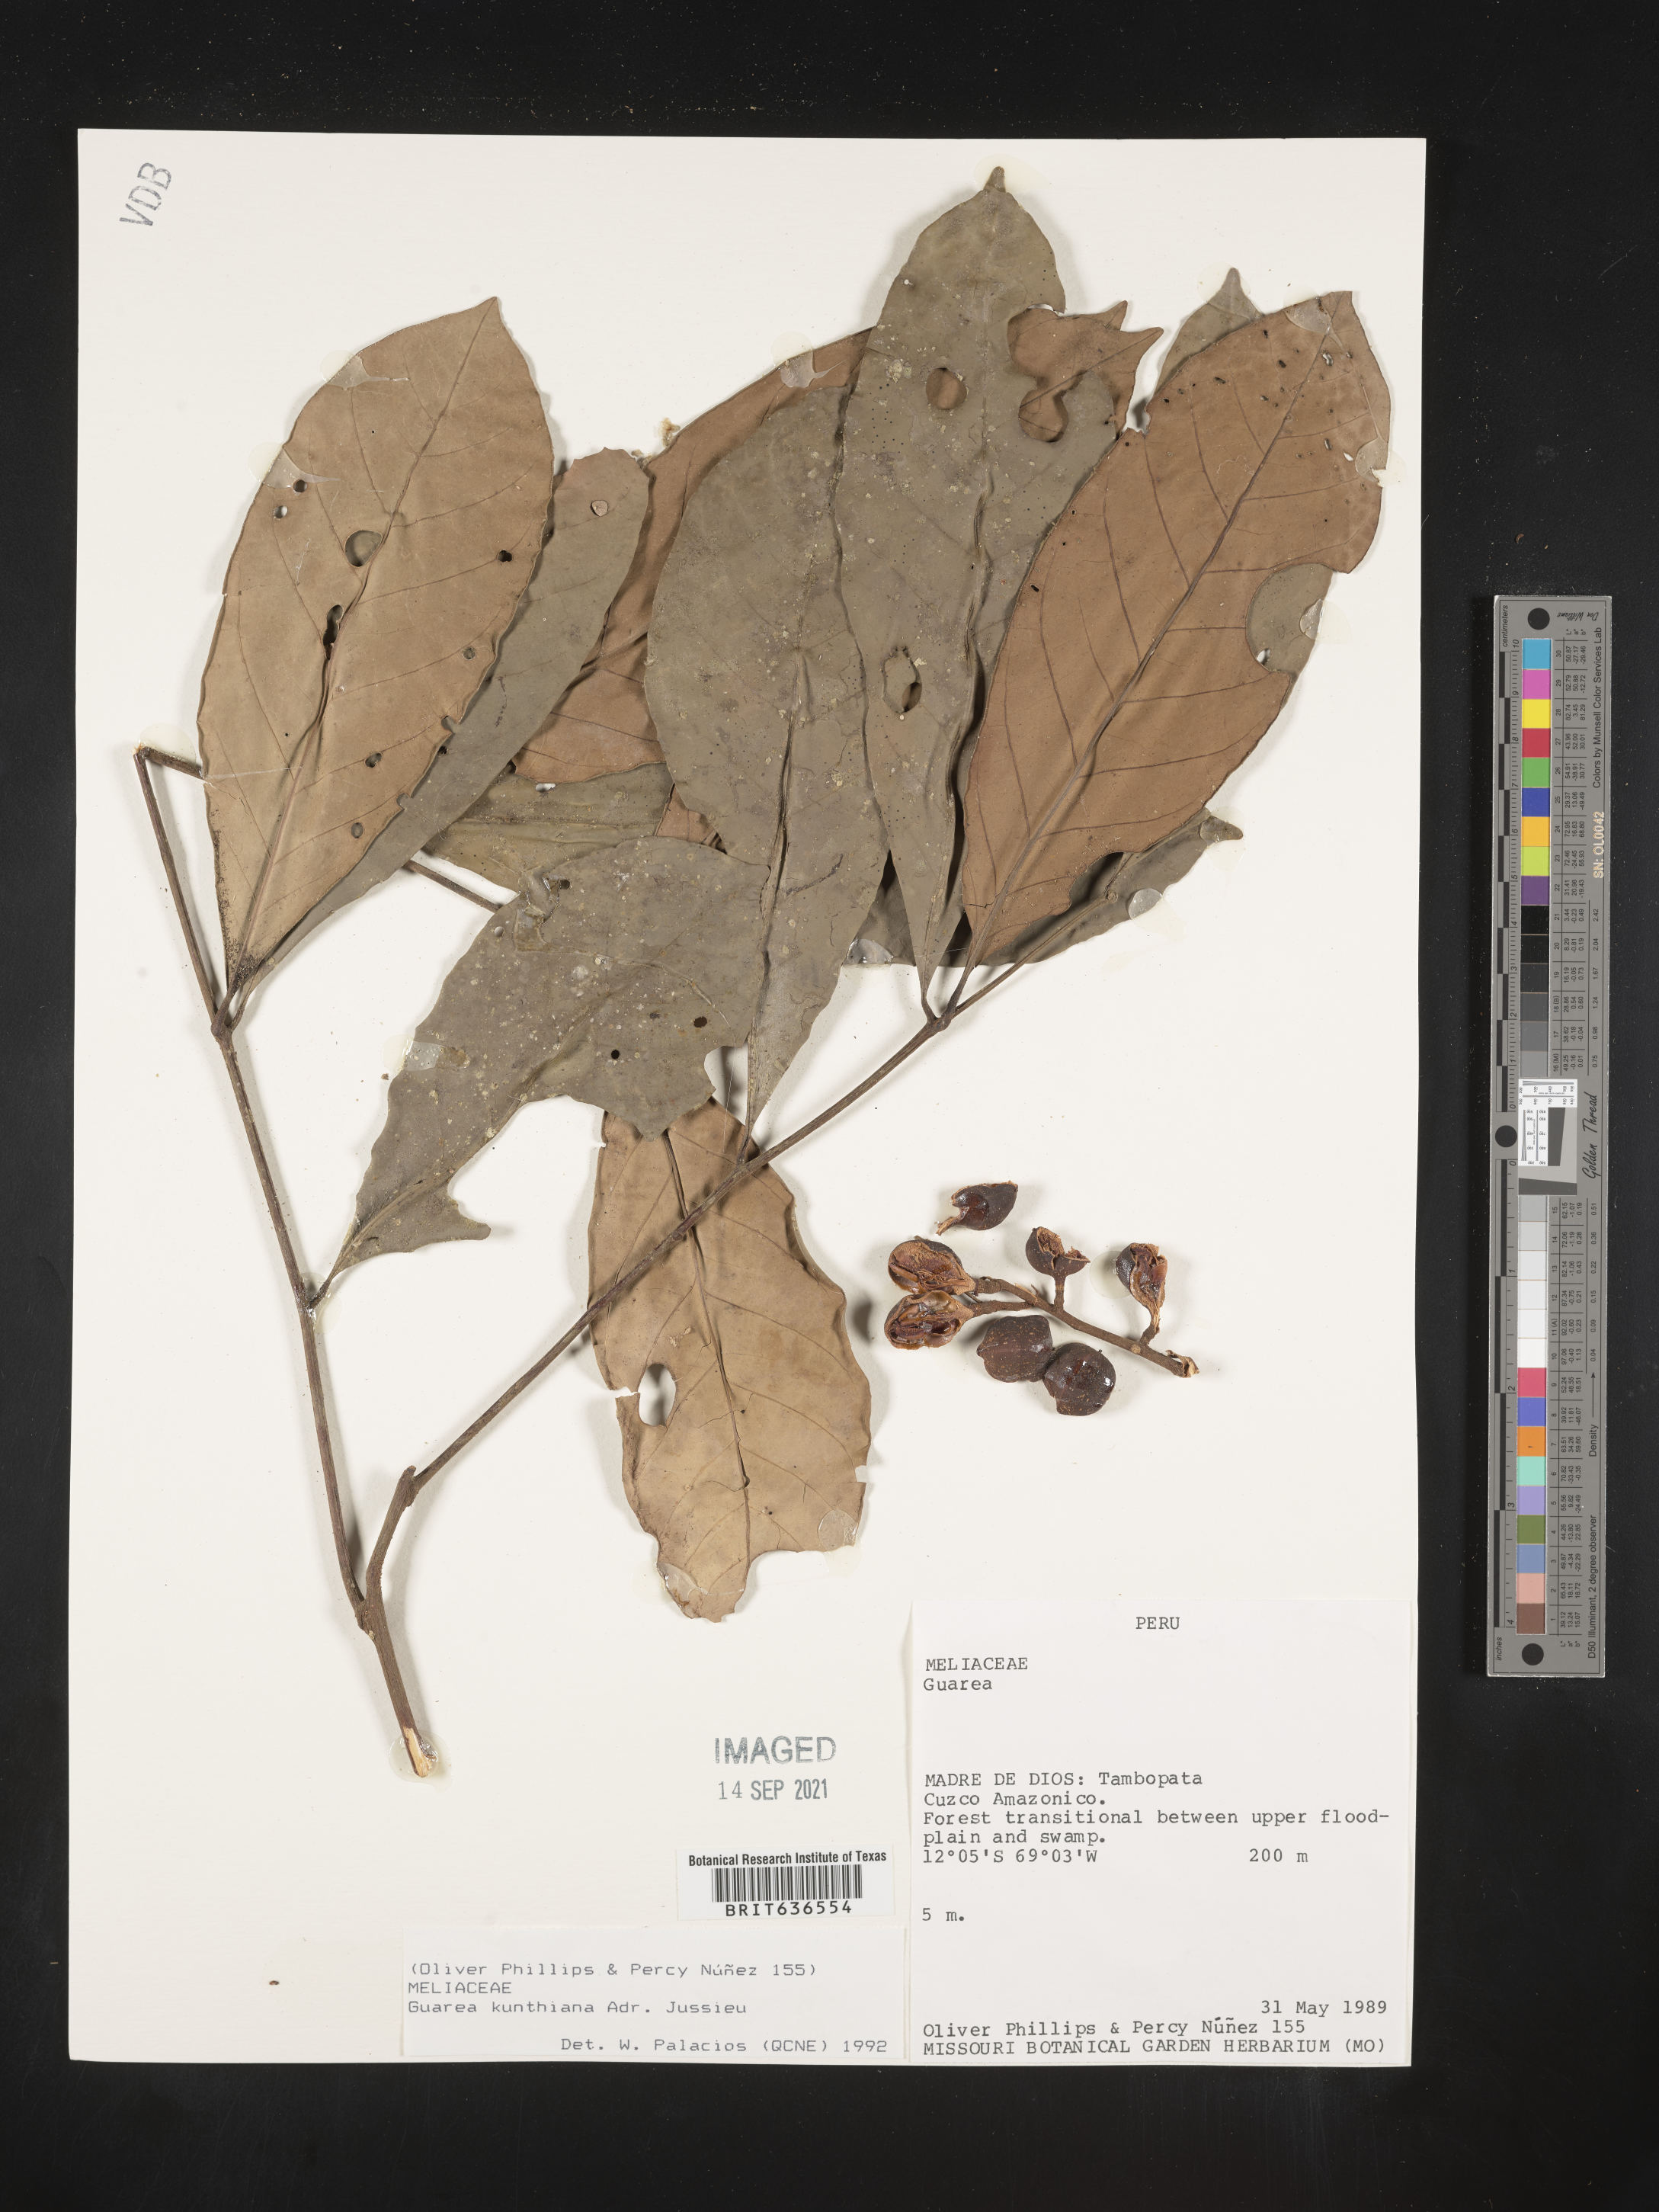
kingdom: Plantae
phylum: Tracheophyta
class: Magnoliopsida
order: Sapindales
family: Meliaceae
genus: Guarea
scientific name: Guarea
